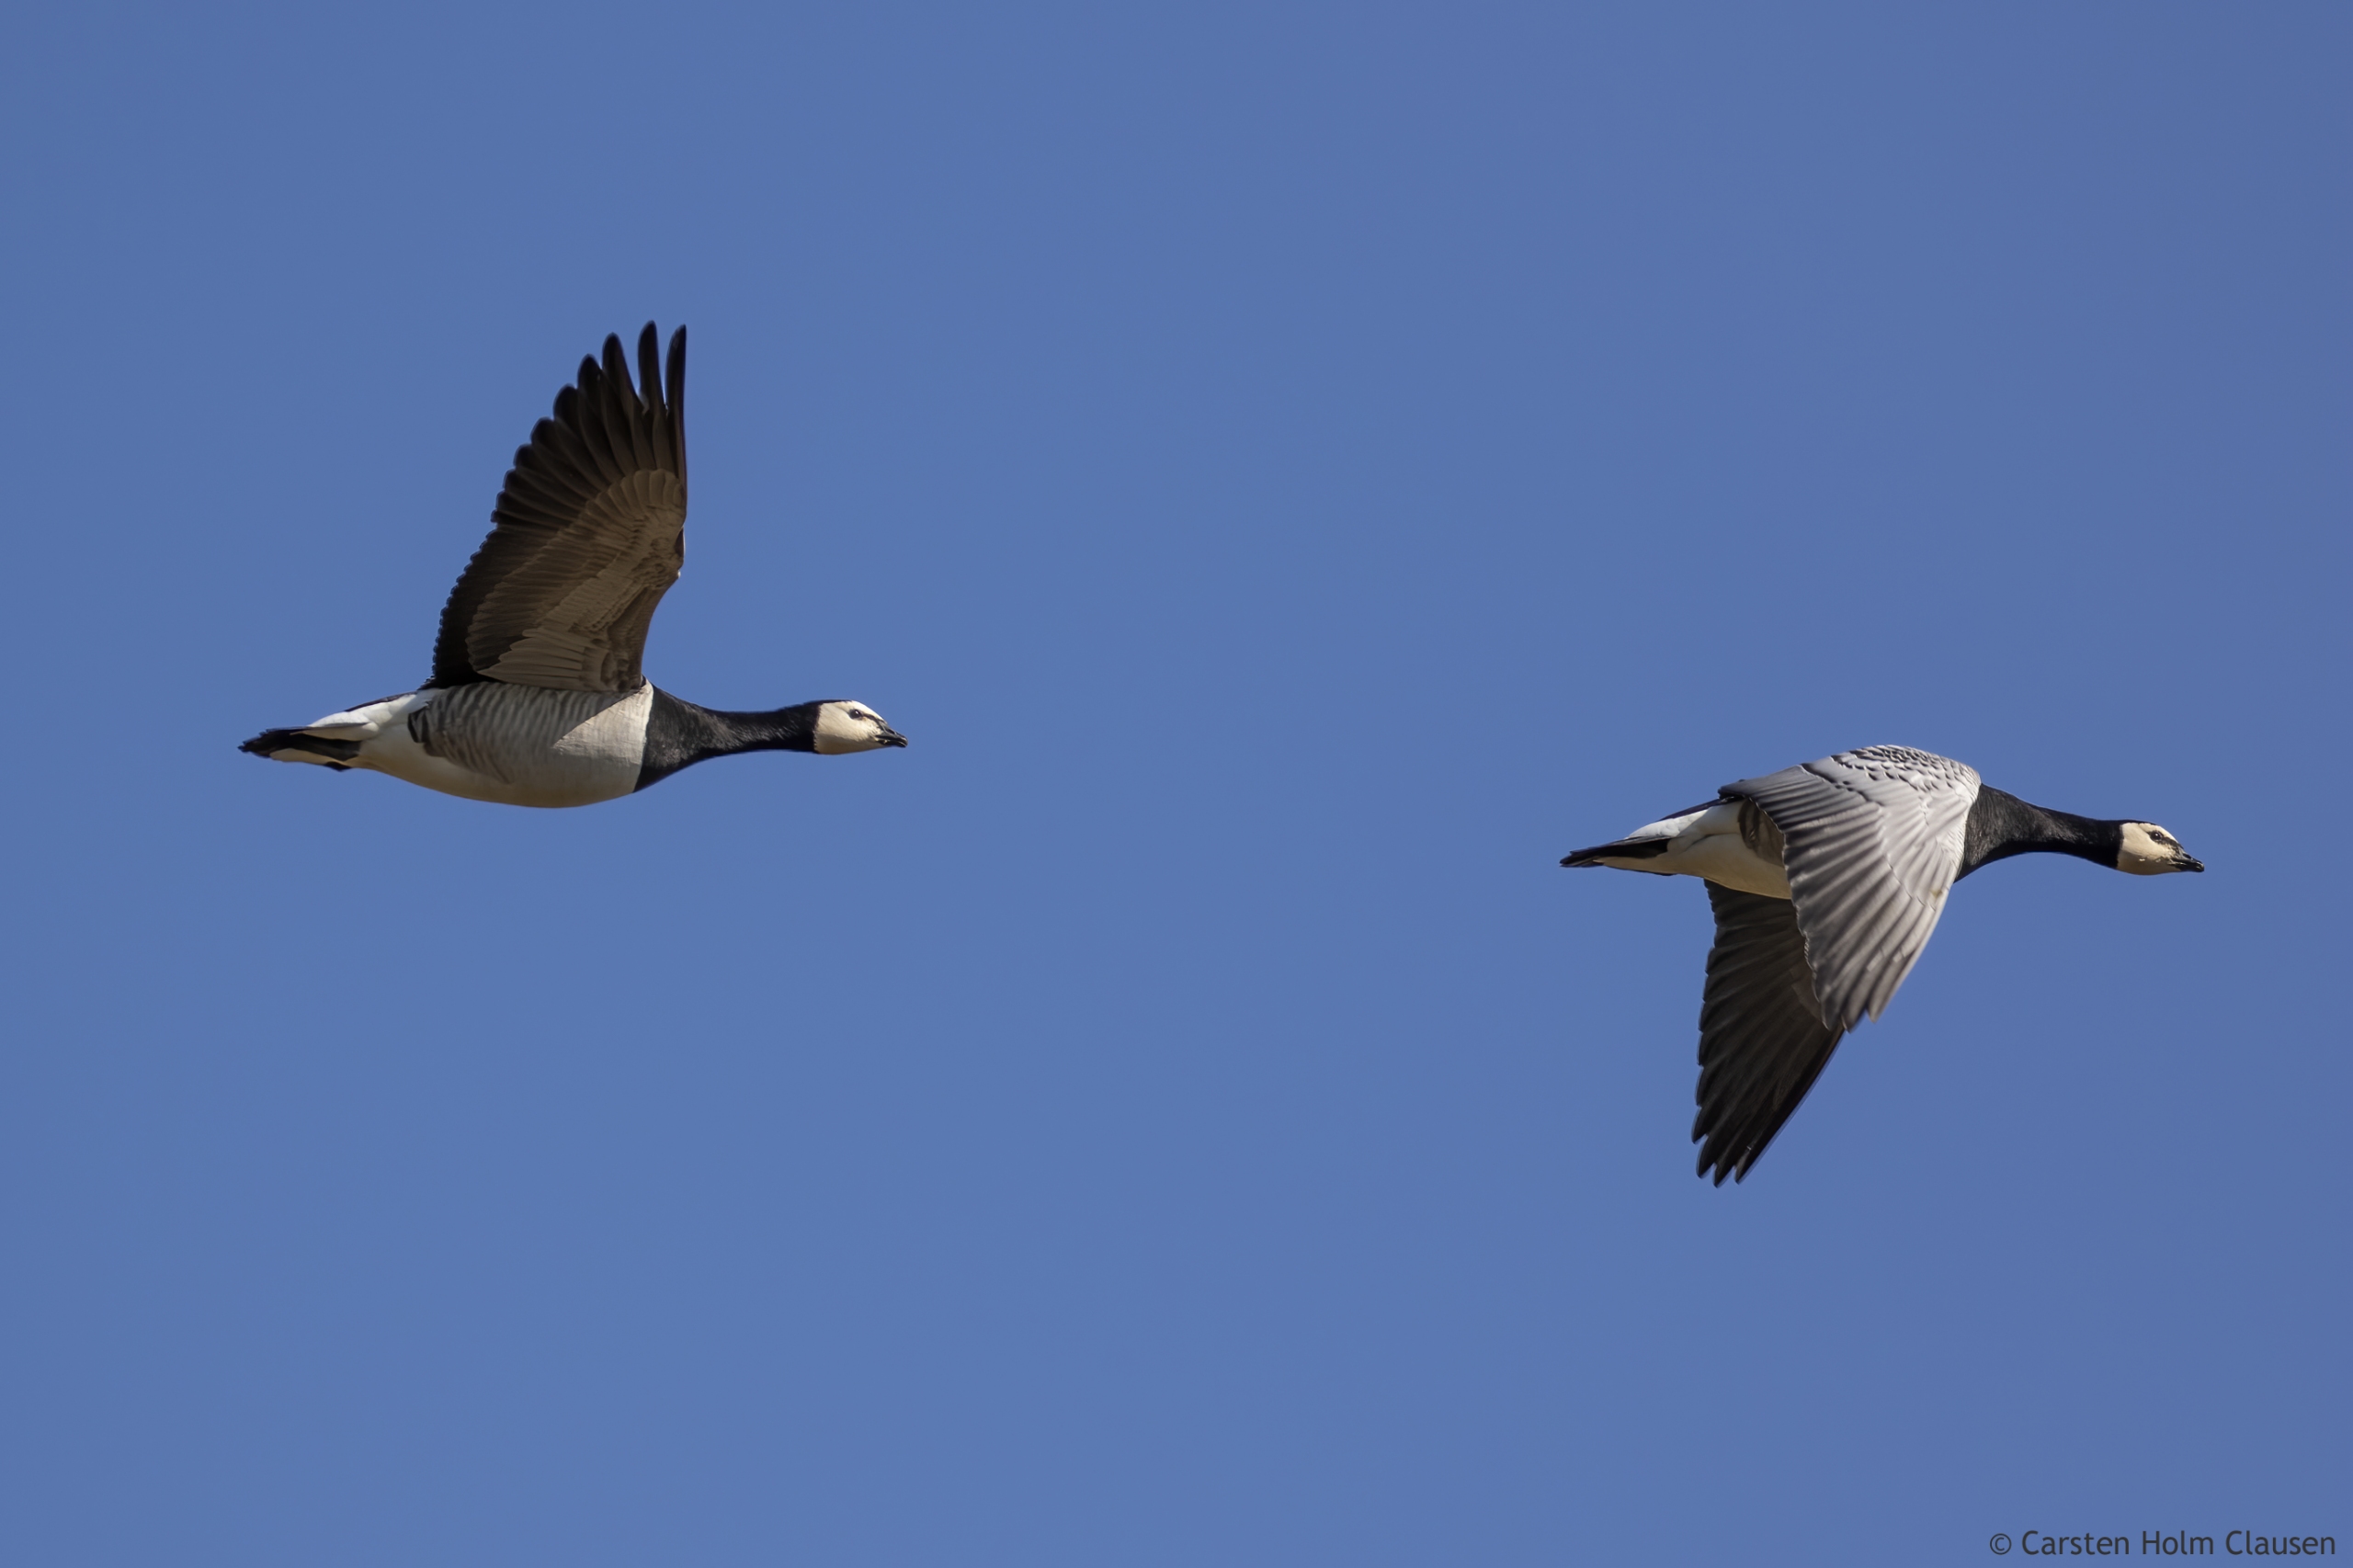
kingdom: Animalia
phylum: Chordata
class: Aves
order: Anseriformes
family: Anatidae
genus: Branta
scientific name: Branta leucopsis
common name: Bramgås
